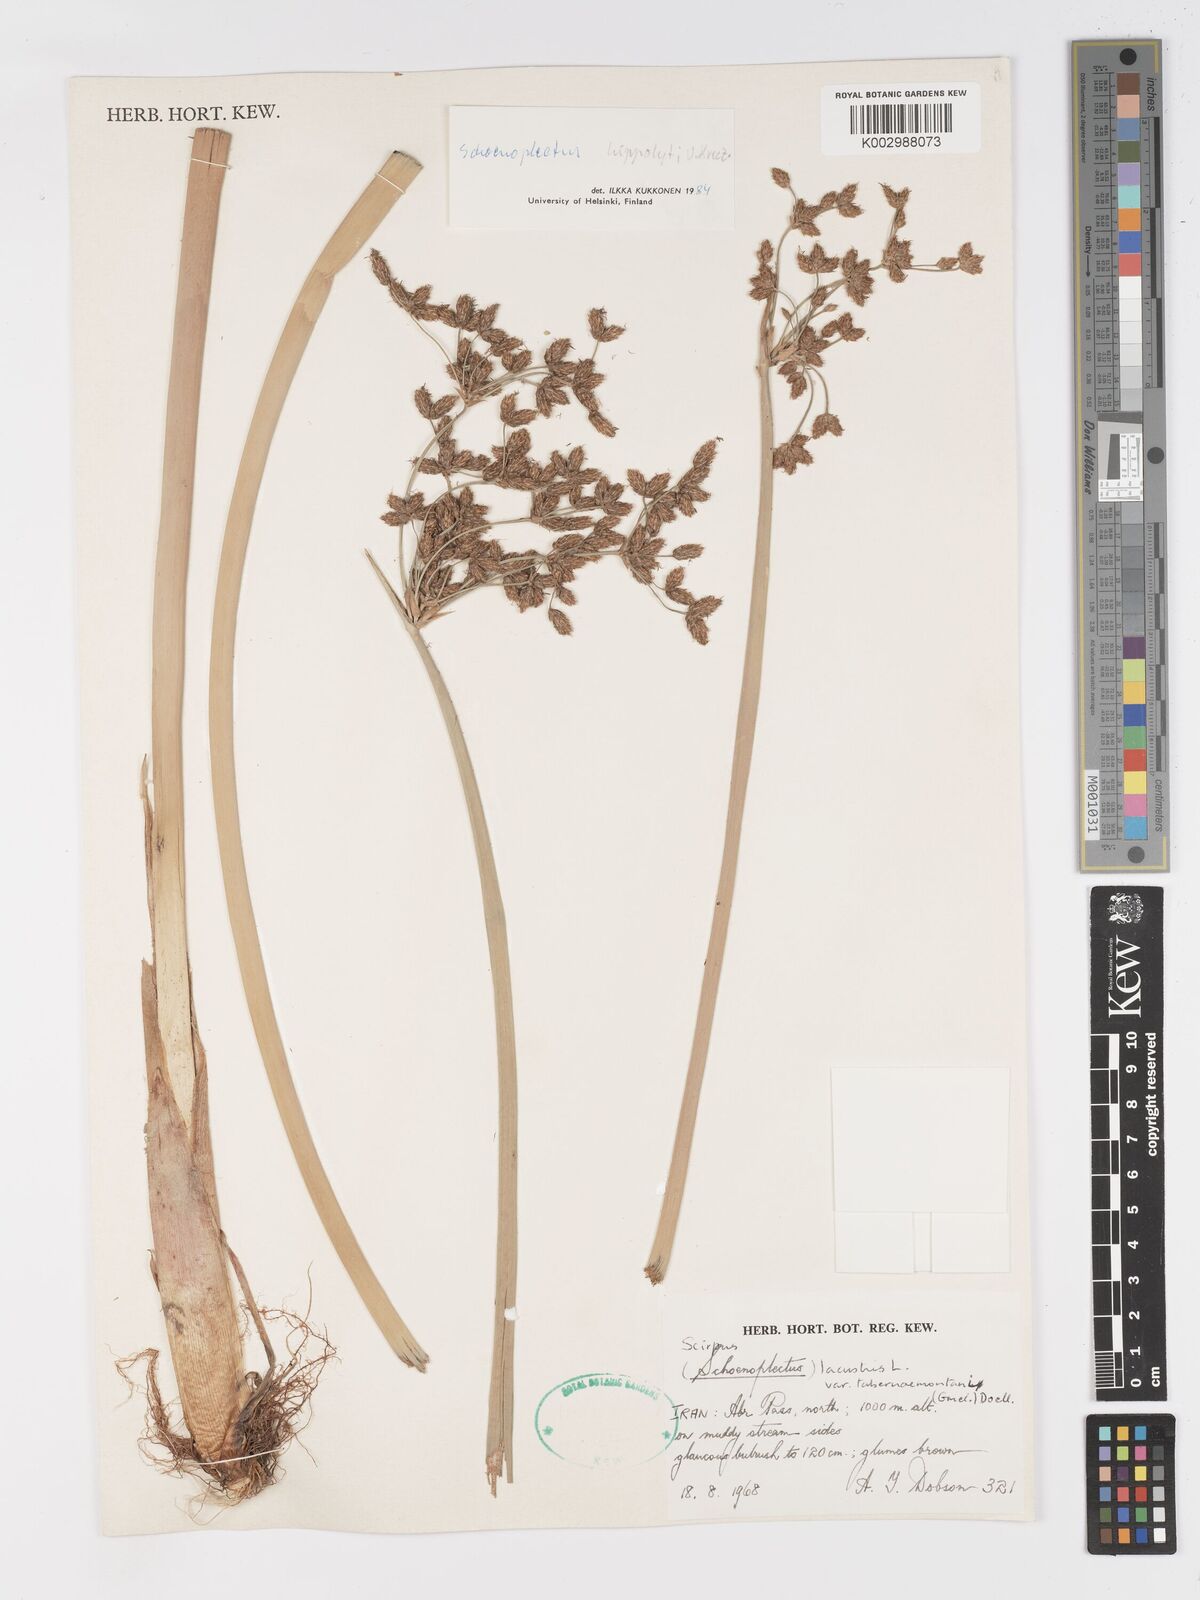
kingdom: Plantae
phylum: Tracheophyta
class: Liliopsida
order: Poales
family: Cyperaceae
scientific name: Cyperaceae
